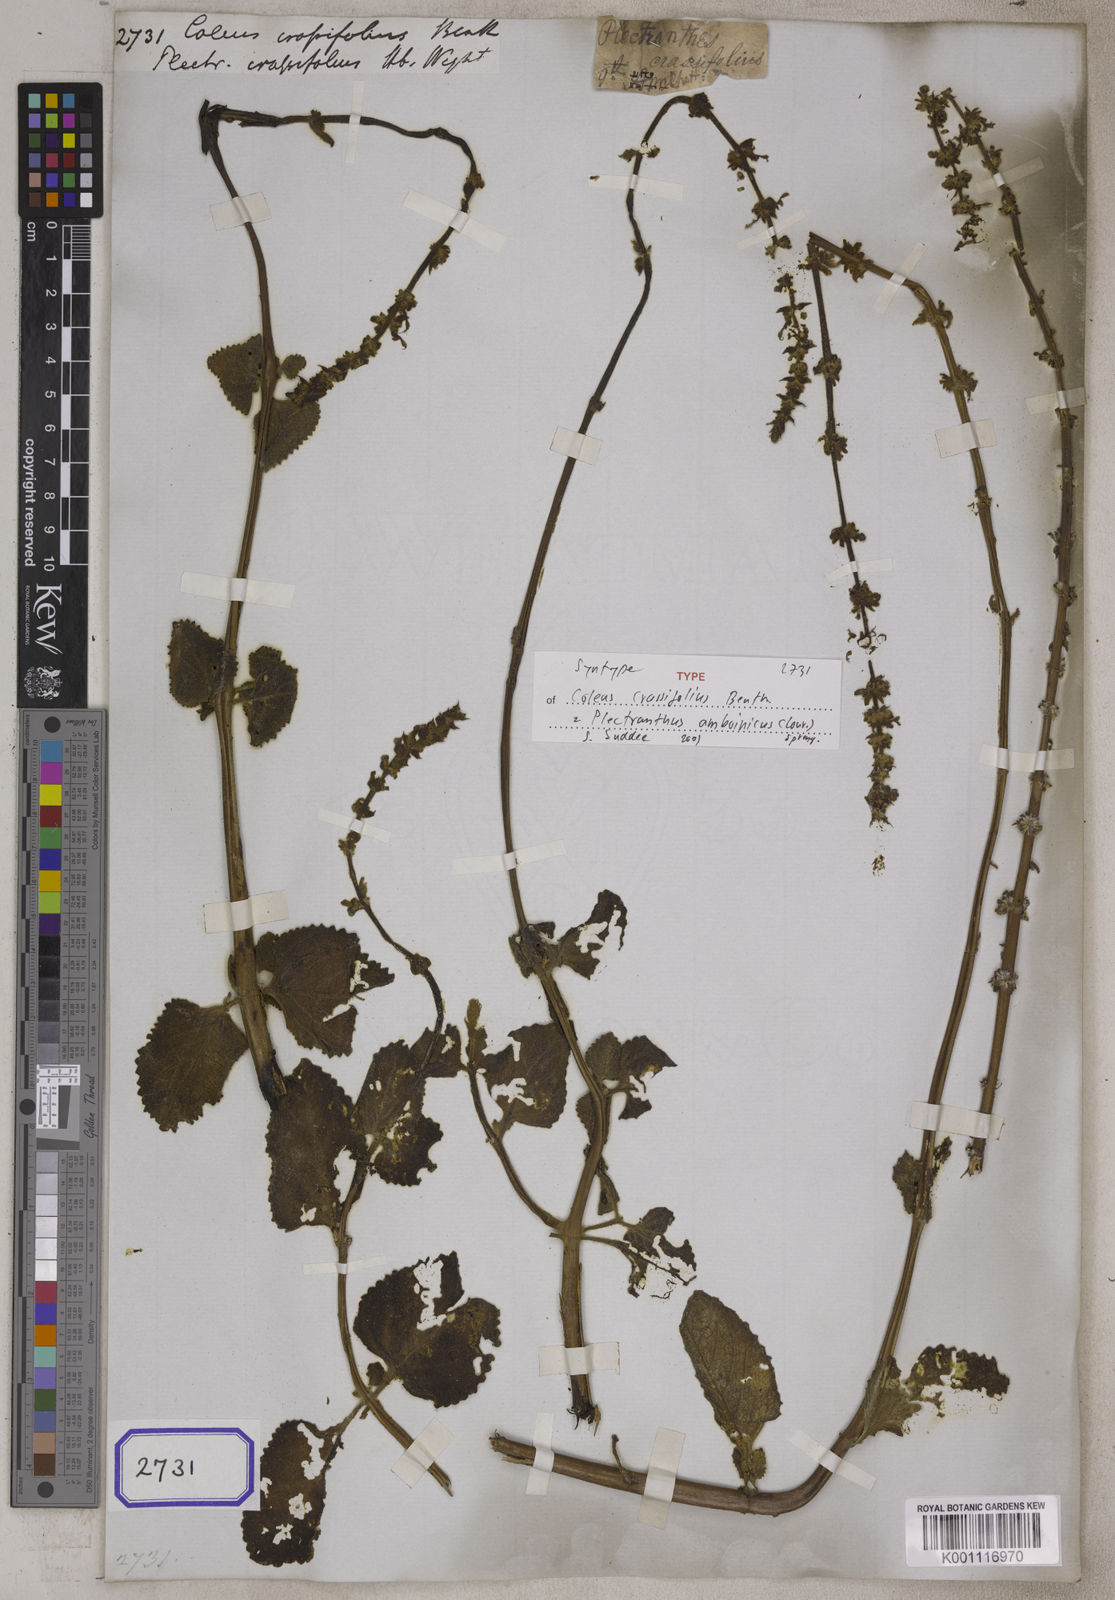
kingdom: Plantae
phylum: Tracheophyta
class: Magnoliopsida
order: Lamiales
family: Lamiaceae
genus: Coleus
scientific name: Coleus amboinicus
